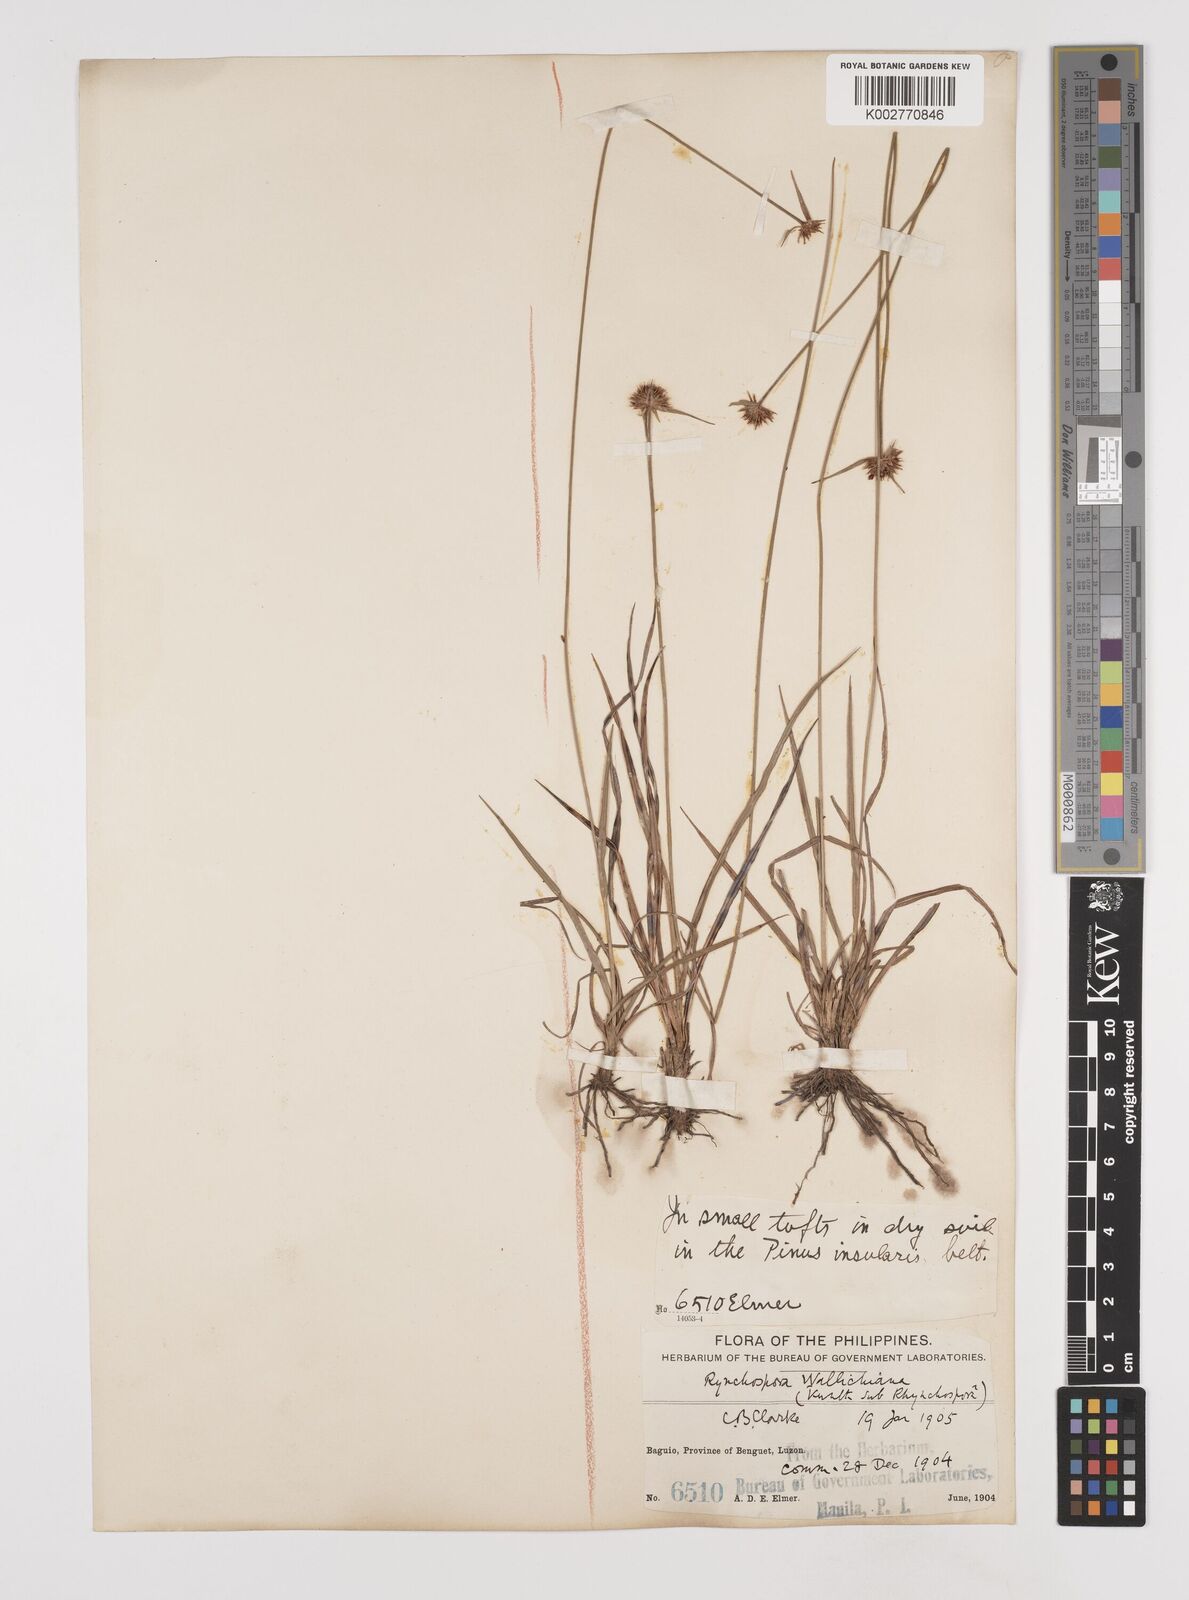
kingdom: Plantae
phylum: Tracheophyta
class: Liliopsida
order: Poales
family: Cyperaceae
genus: Rhynchospora
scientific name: Rhynchospora rubra
